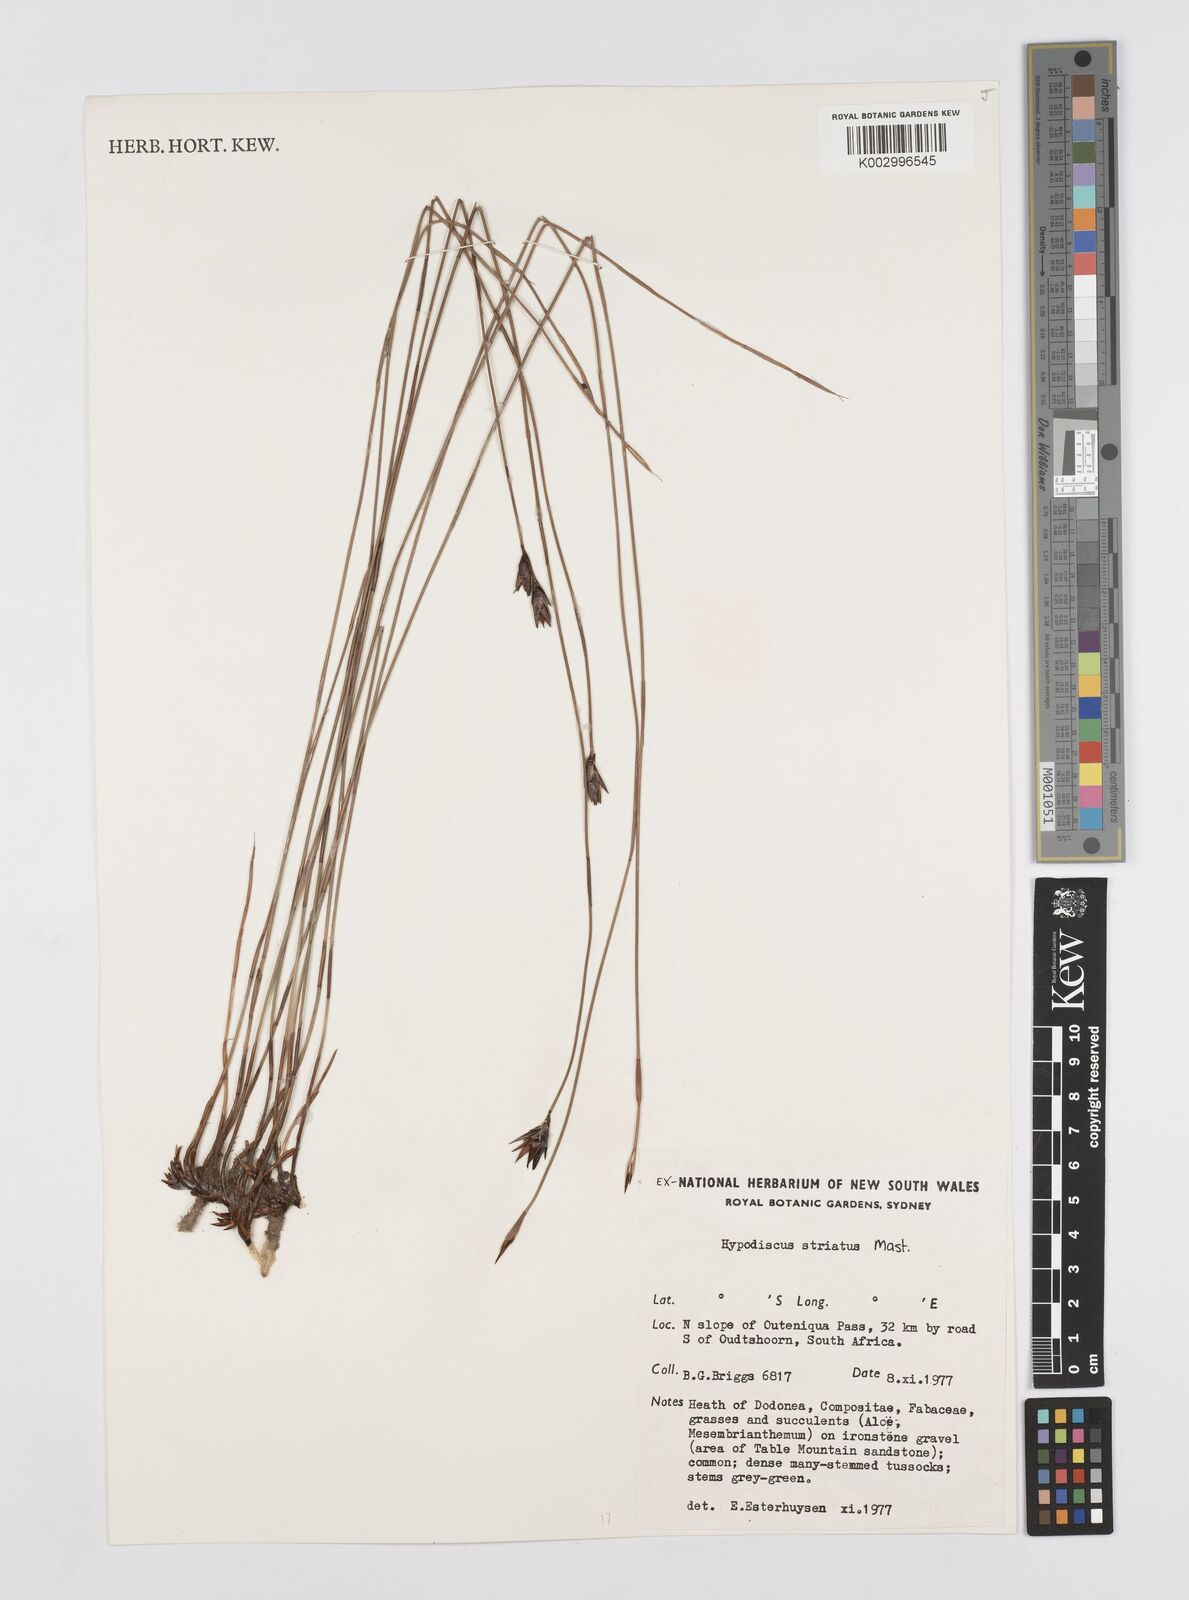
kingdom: Plantae
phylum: Tracheophyta
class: Liliopsida
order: Poales
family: Restionaceae
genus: Hypodiscus
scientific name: Hypodiscus striatus
